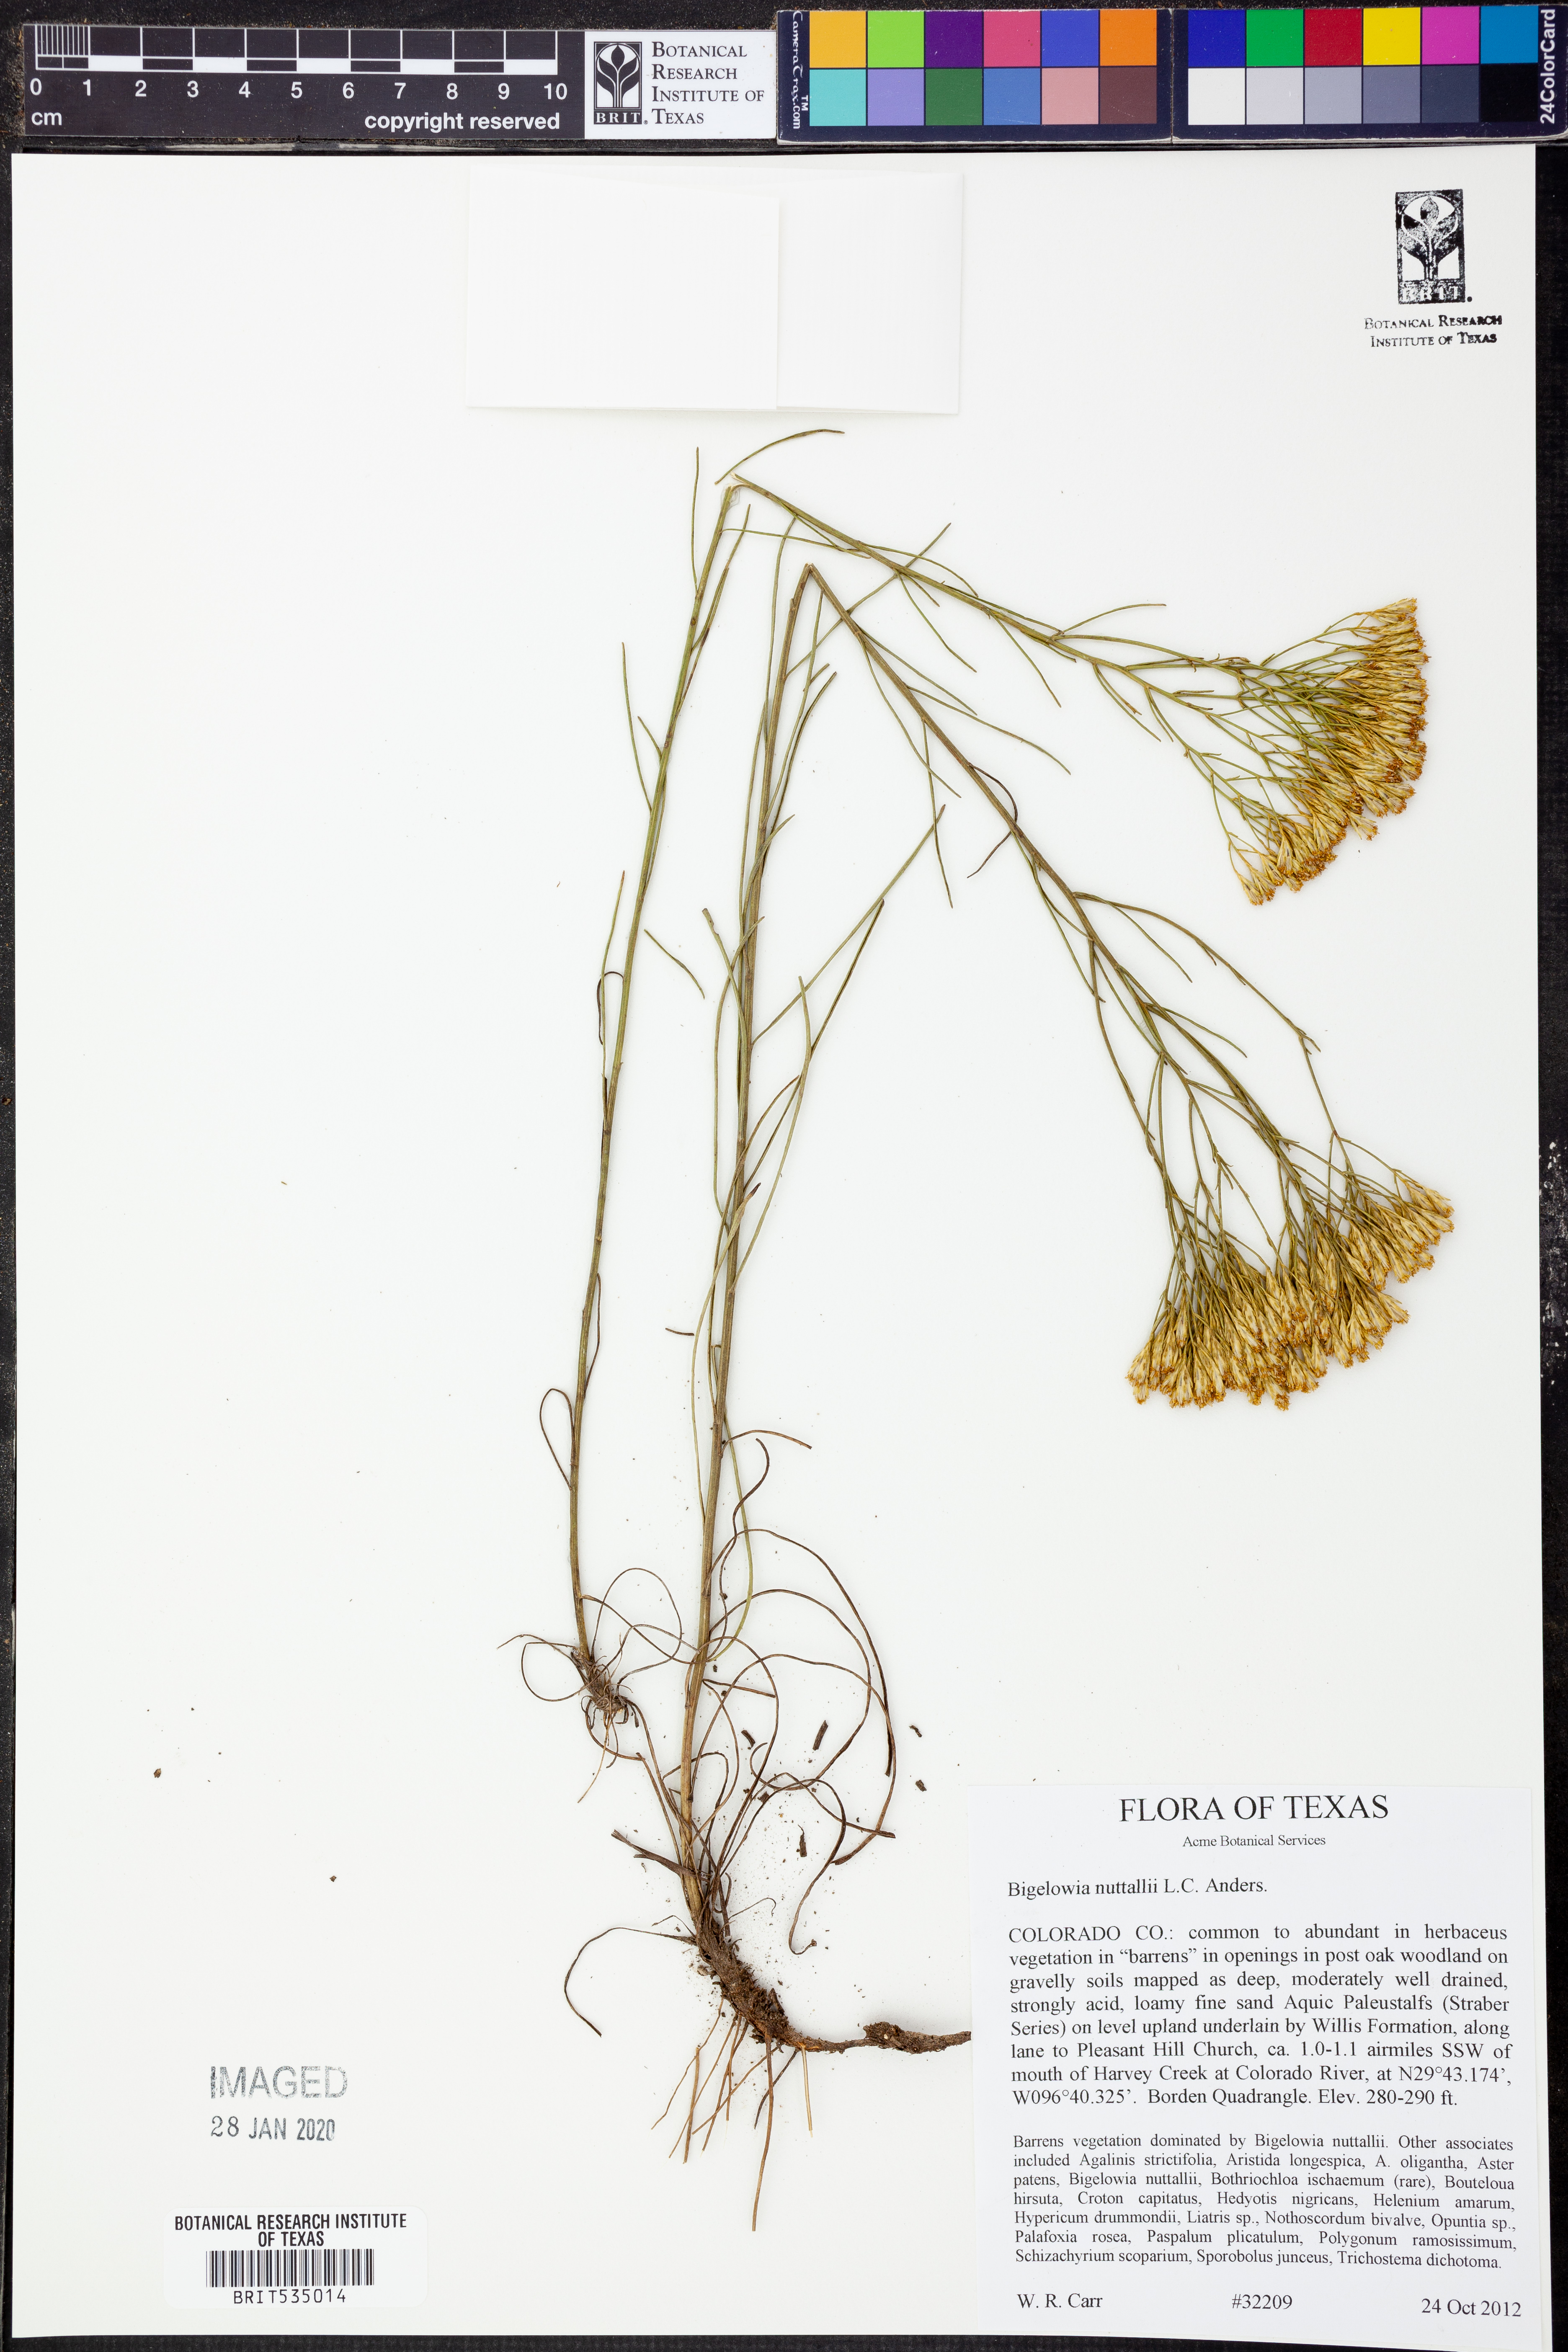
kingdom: Plantae
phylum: Tracheophyta
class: Magnoliopsida
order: Asterales
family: Asteraceae
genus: Bigelowia
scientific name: Bigelowia nuttallii
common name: Nuttall's rayless-goldenrod
